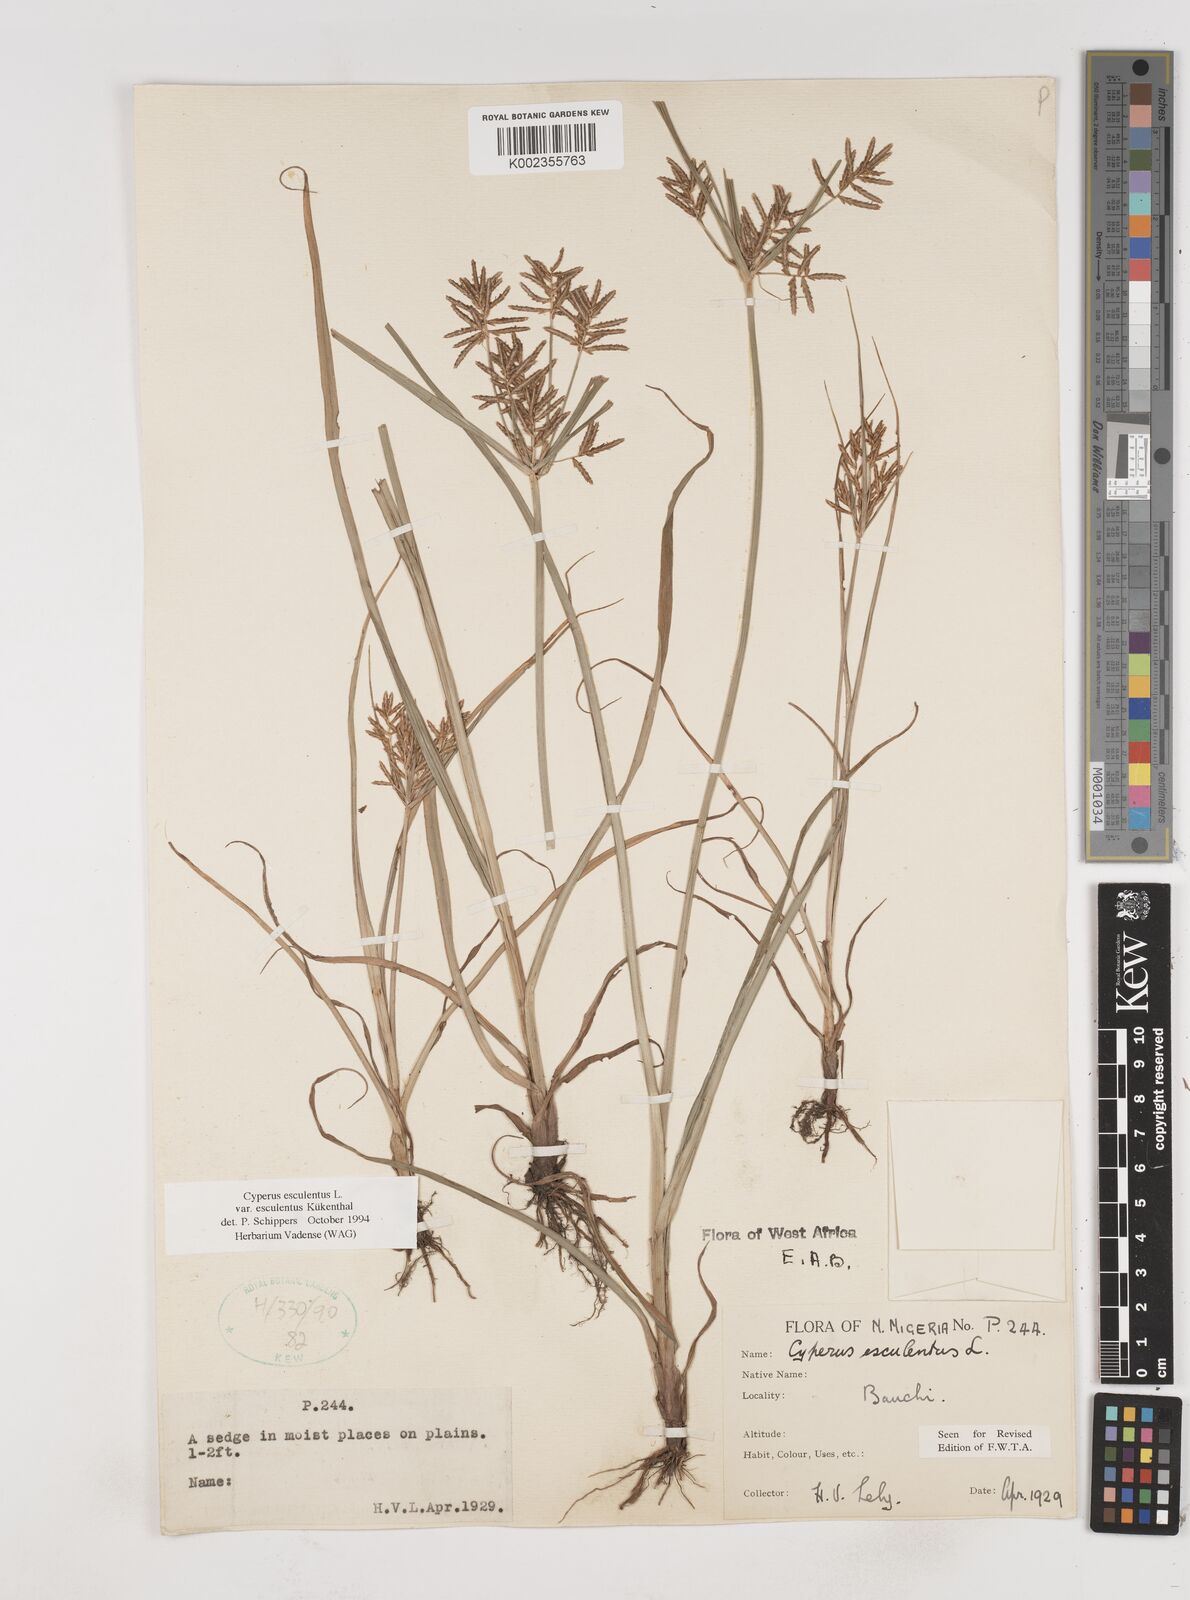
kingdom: Plantae
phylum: Tracheophyta
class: Liliopsida
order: Poales
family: Cyperaceae
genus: Cyperus
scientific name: Cyperus esculentus
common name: Yellow nutsedge
